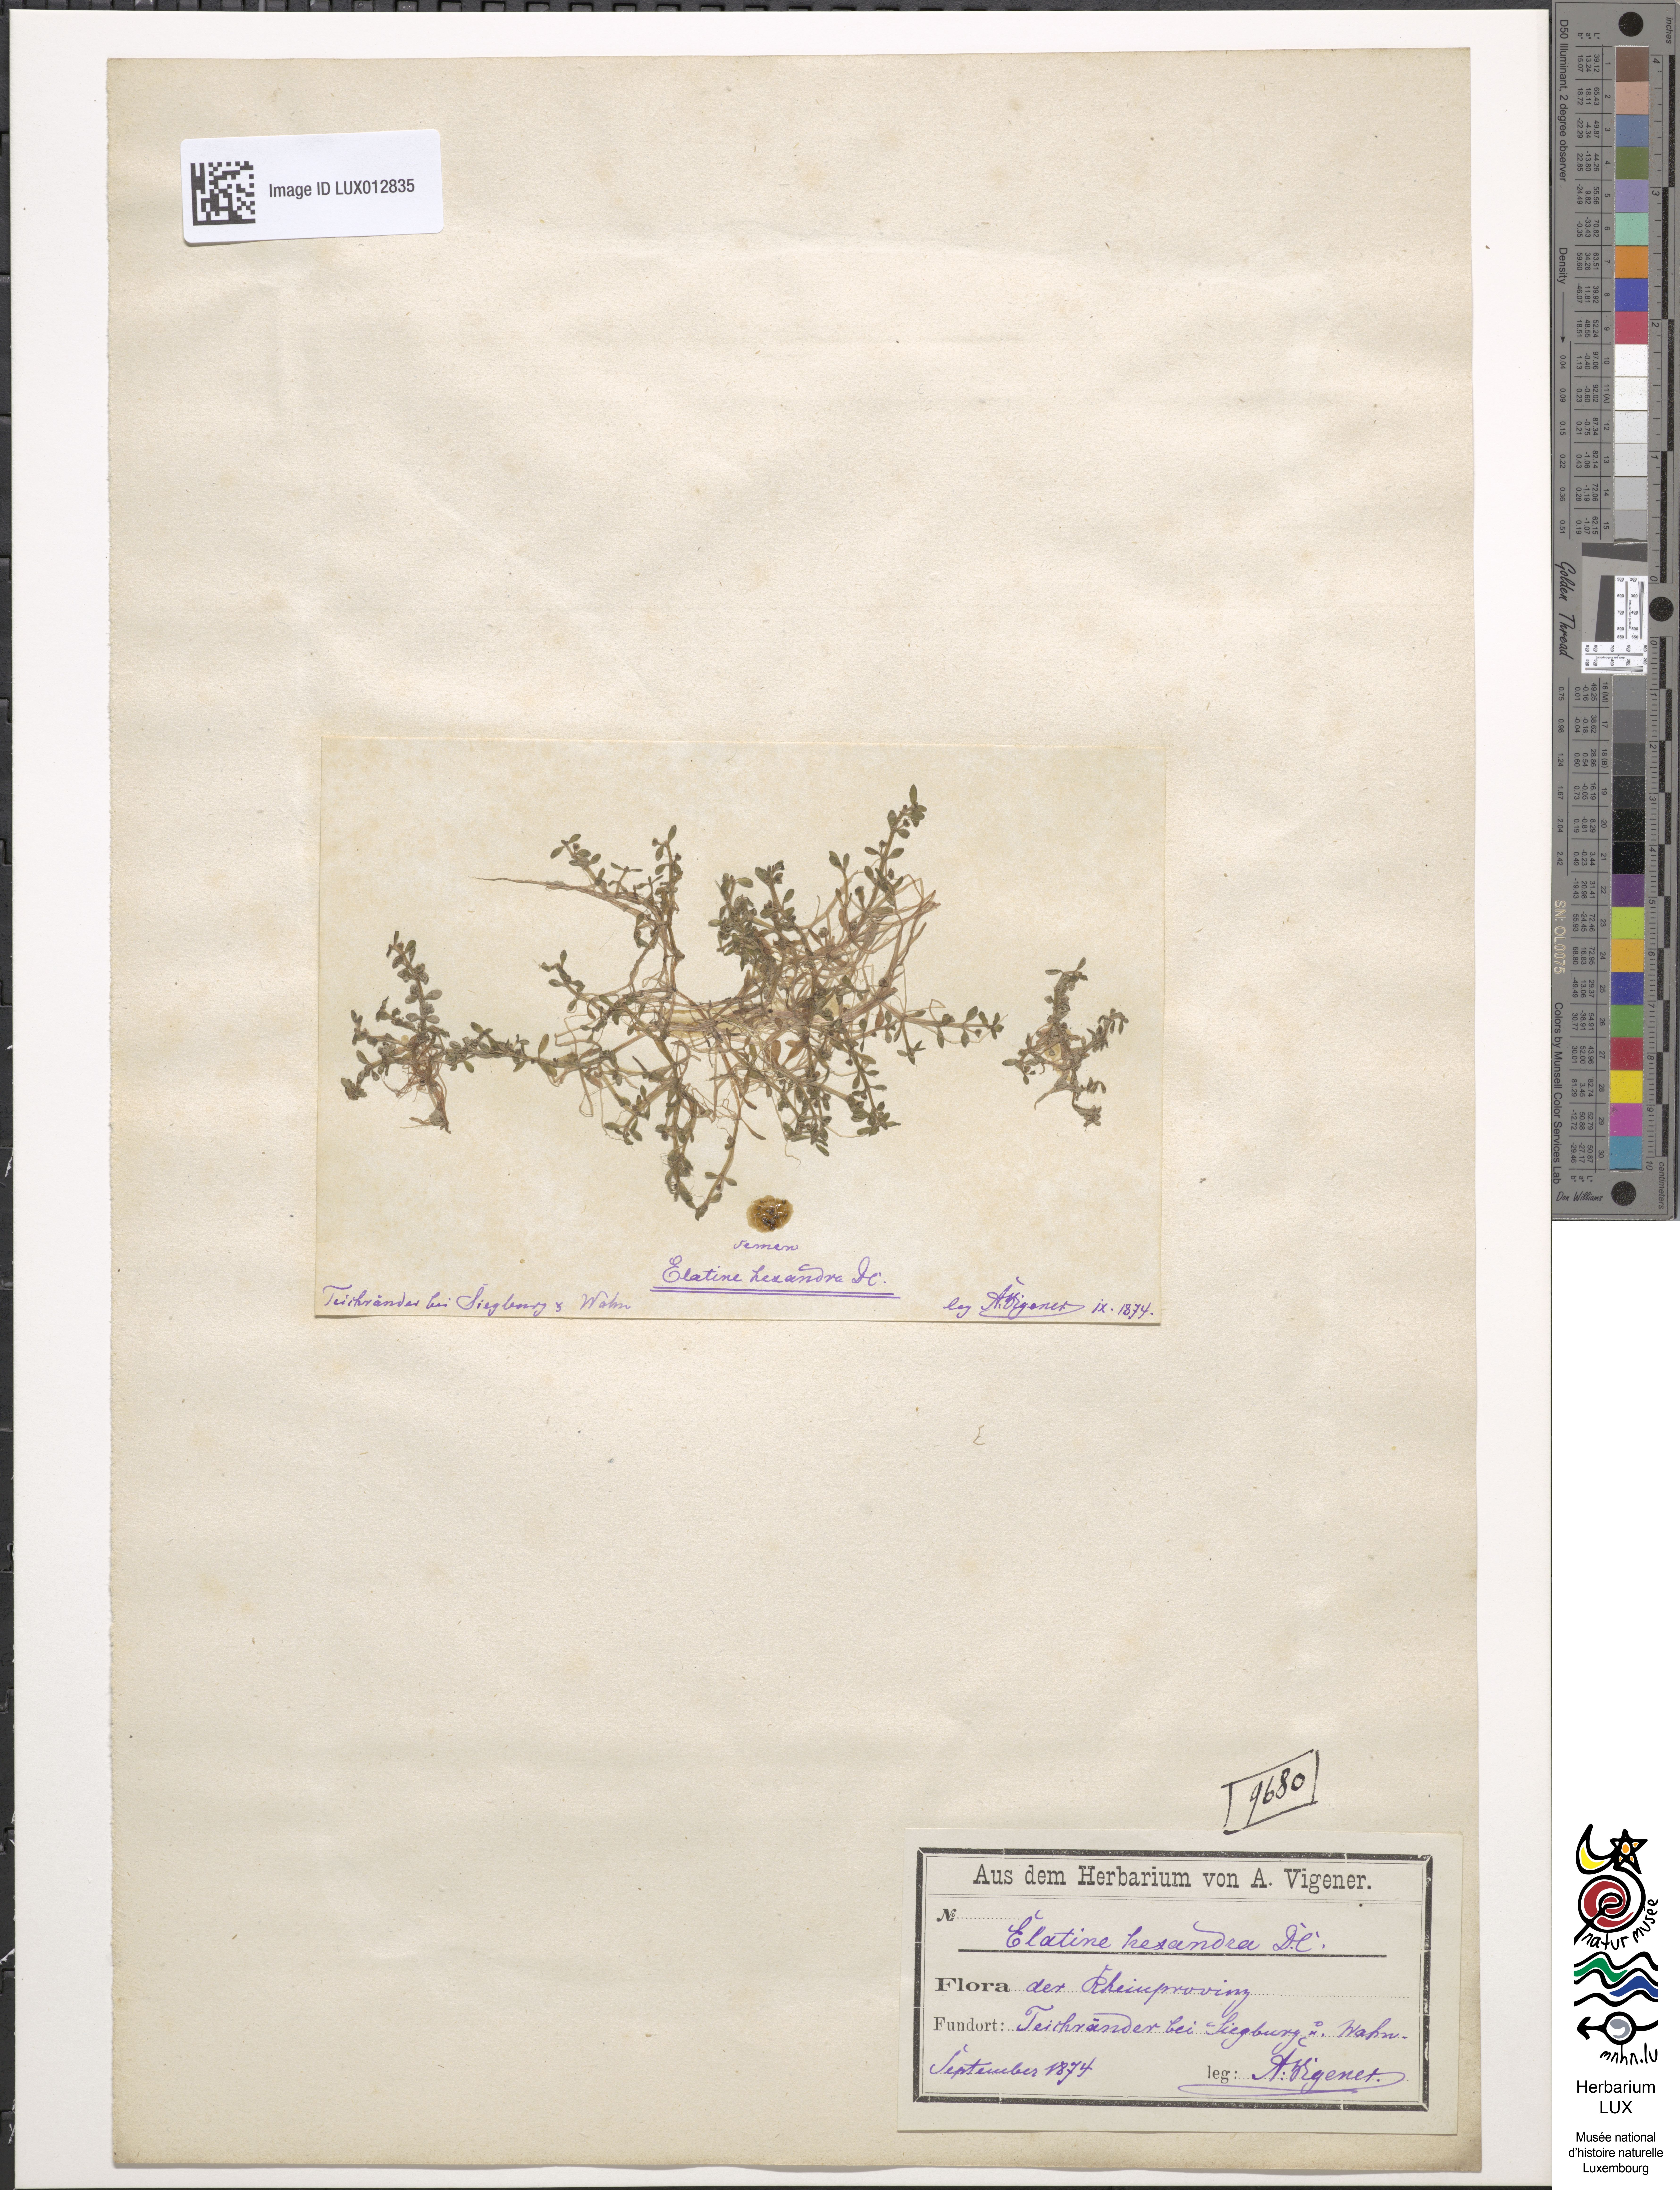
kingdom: Plantae
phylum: Tracheophyta
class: Magnoliopsida
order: Malpighiales
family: Elatinaceae
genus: Elatine
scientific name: Elatine hexandra
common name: Six-stamened waterwort
